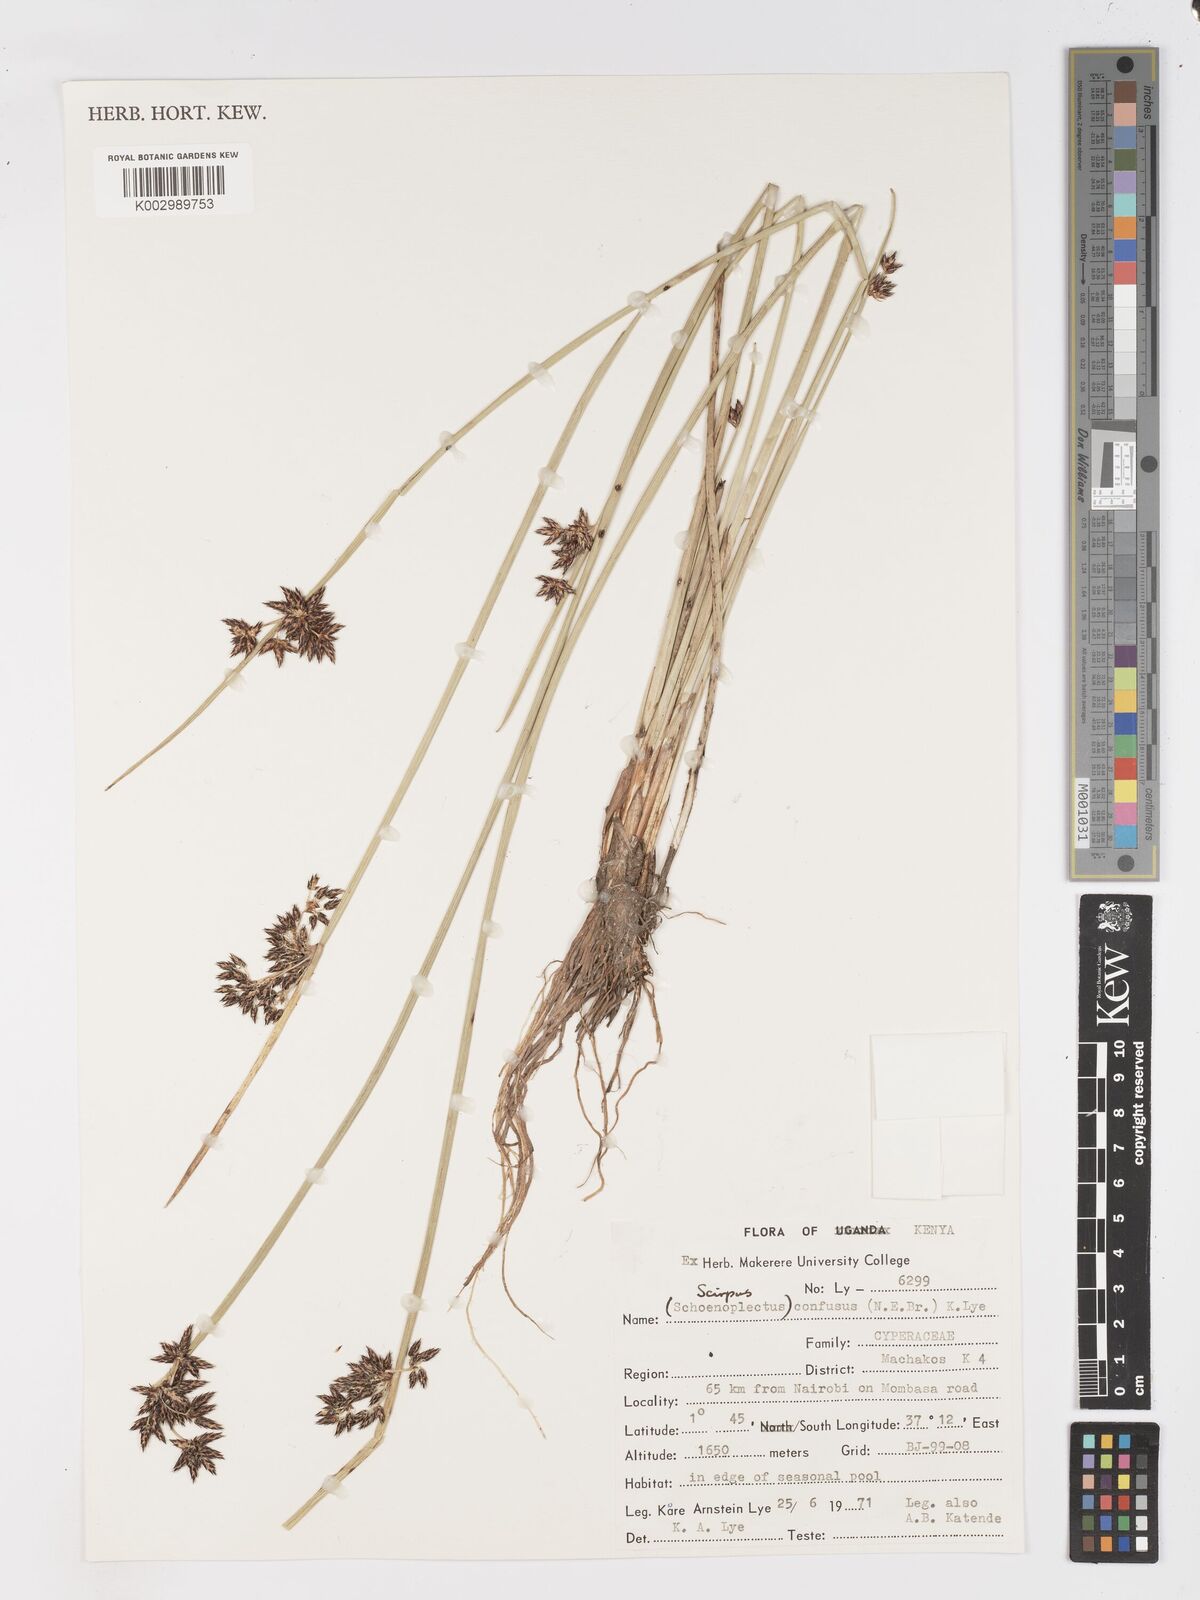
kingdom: Plantae
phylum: Tracheophyta
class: Liliopsida
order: Poales
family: Cyperaceae
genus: Schoenoplectiella
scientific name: Schoenoplectiella confusa
